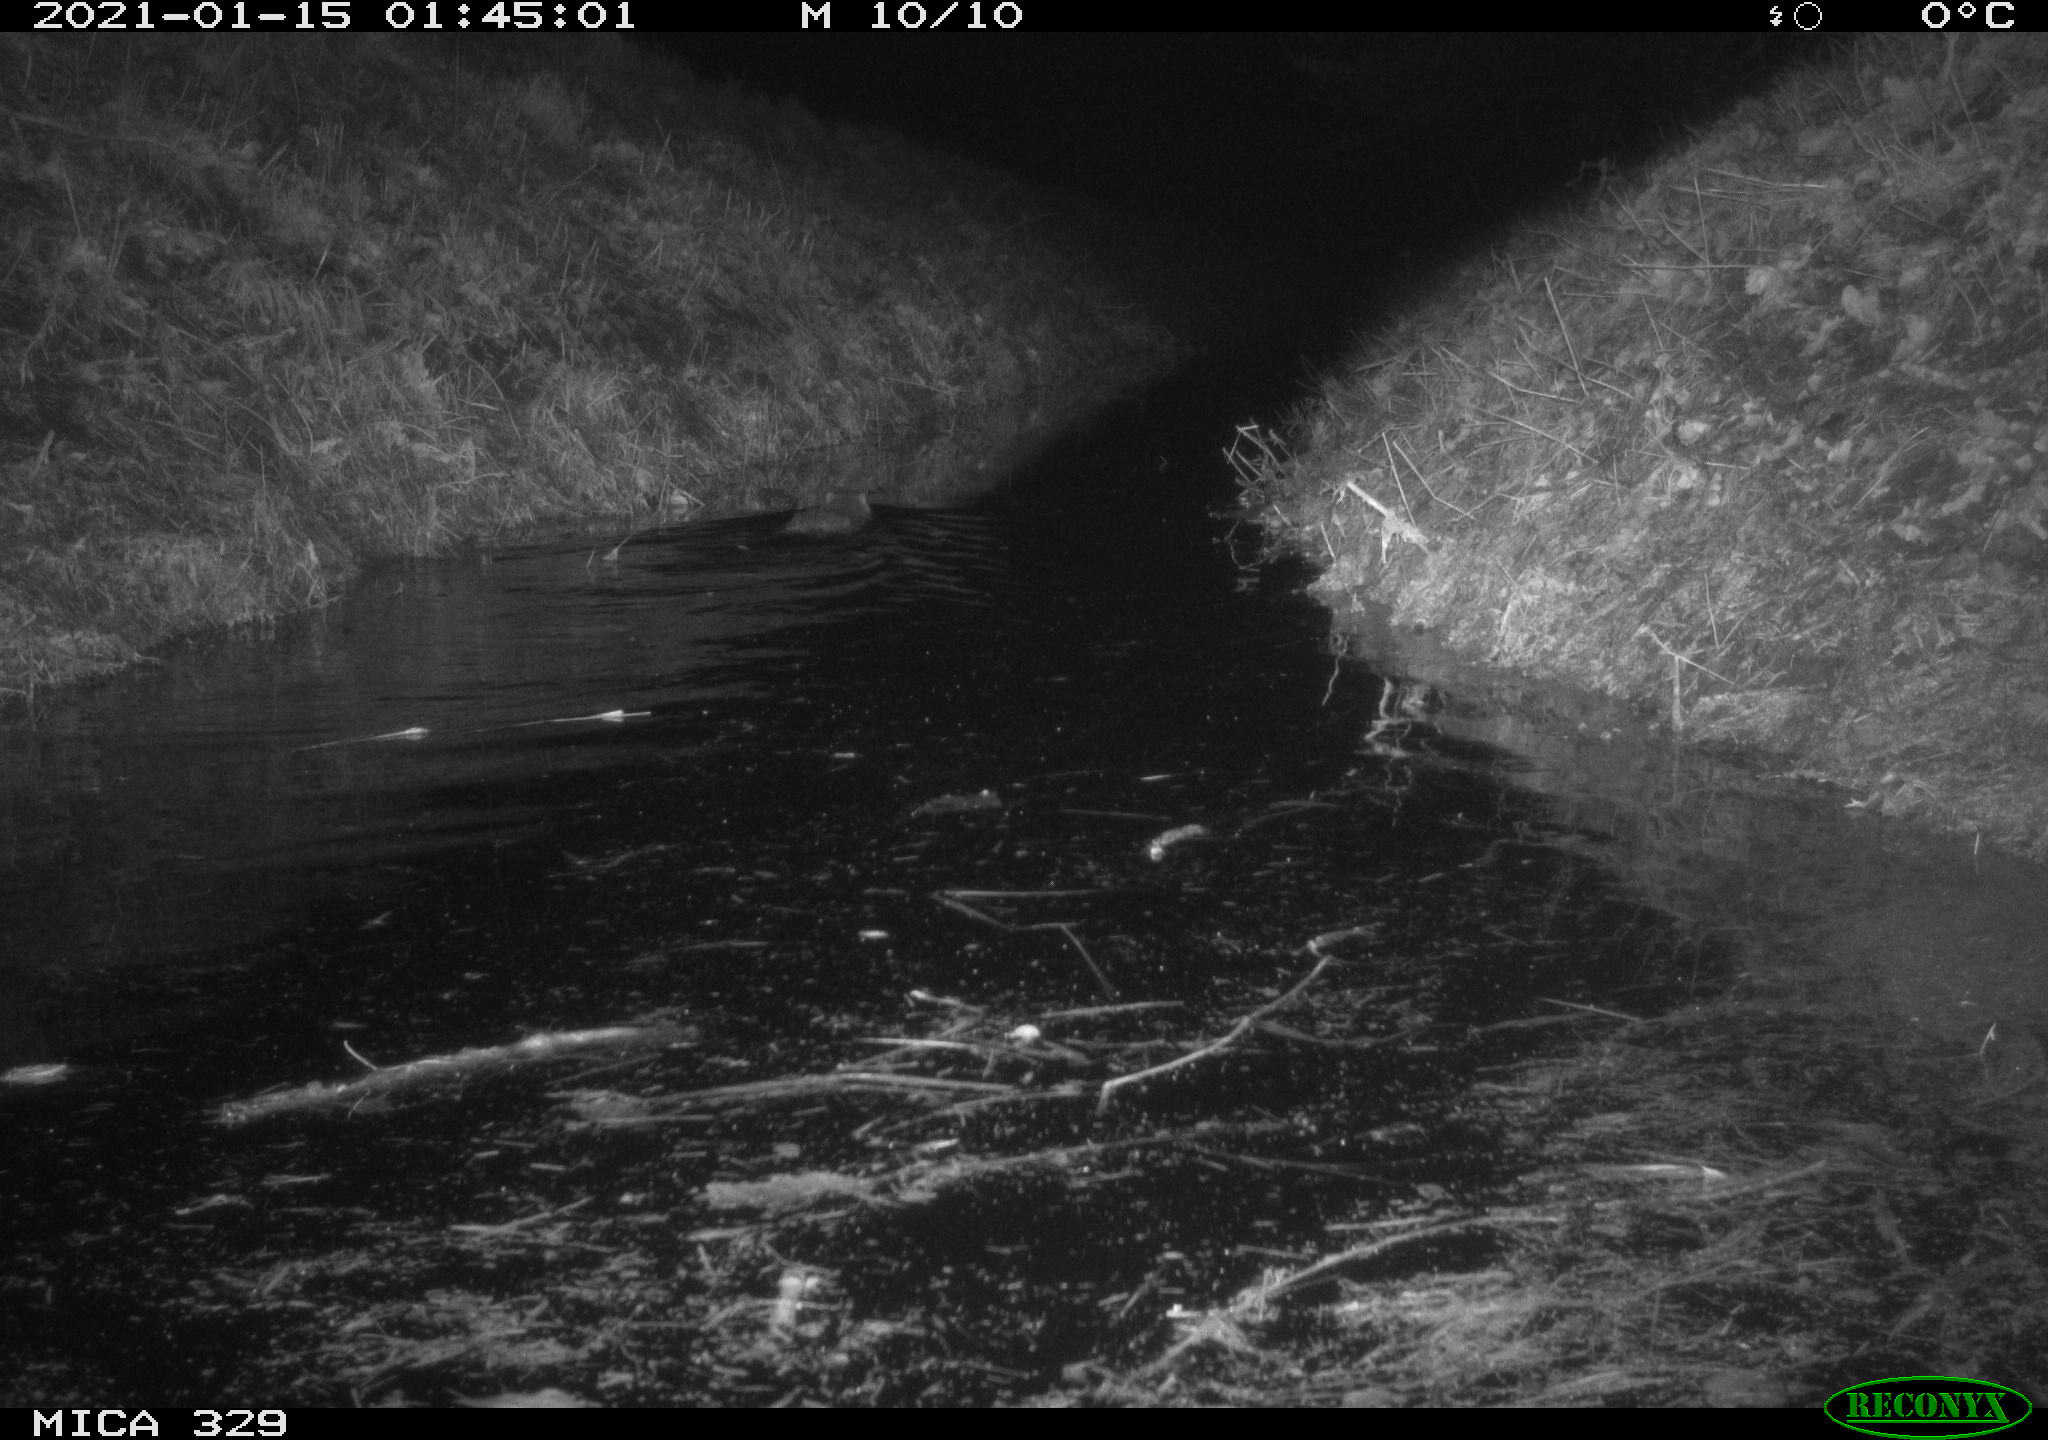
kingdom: Animalia
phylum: Chordata
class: Mammalia
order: Rodentia
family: Myocastoridae
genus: Myocastor
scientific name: Myocastor coypus
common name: Coypu
